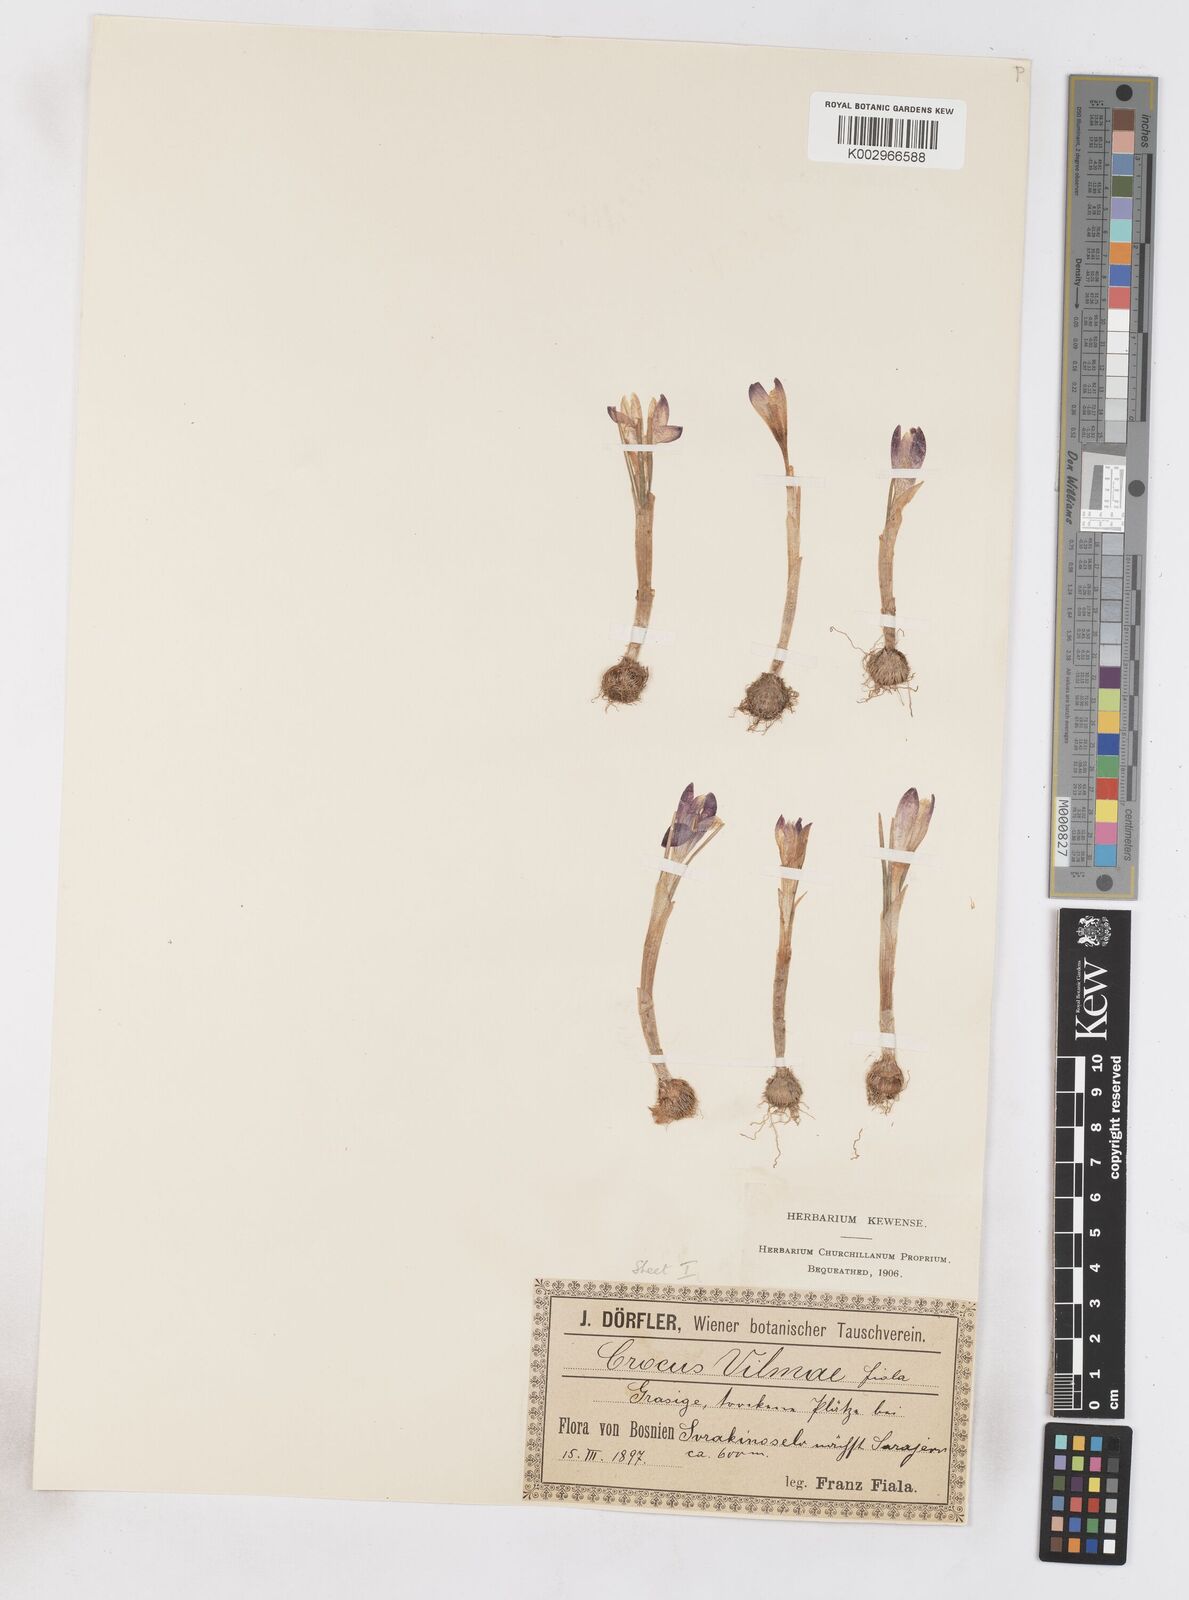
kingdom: Plantae
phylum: Tracheophyta
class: Liliopsida
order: Asparagales
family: Iridaceae
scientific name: Iridaceae
